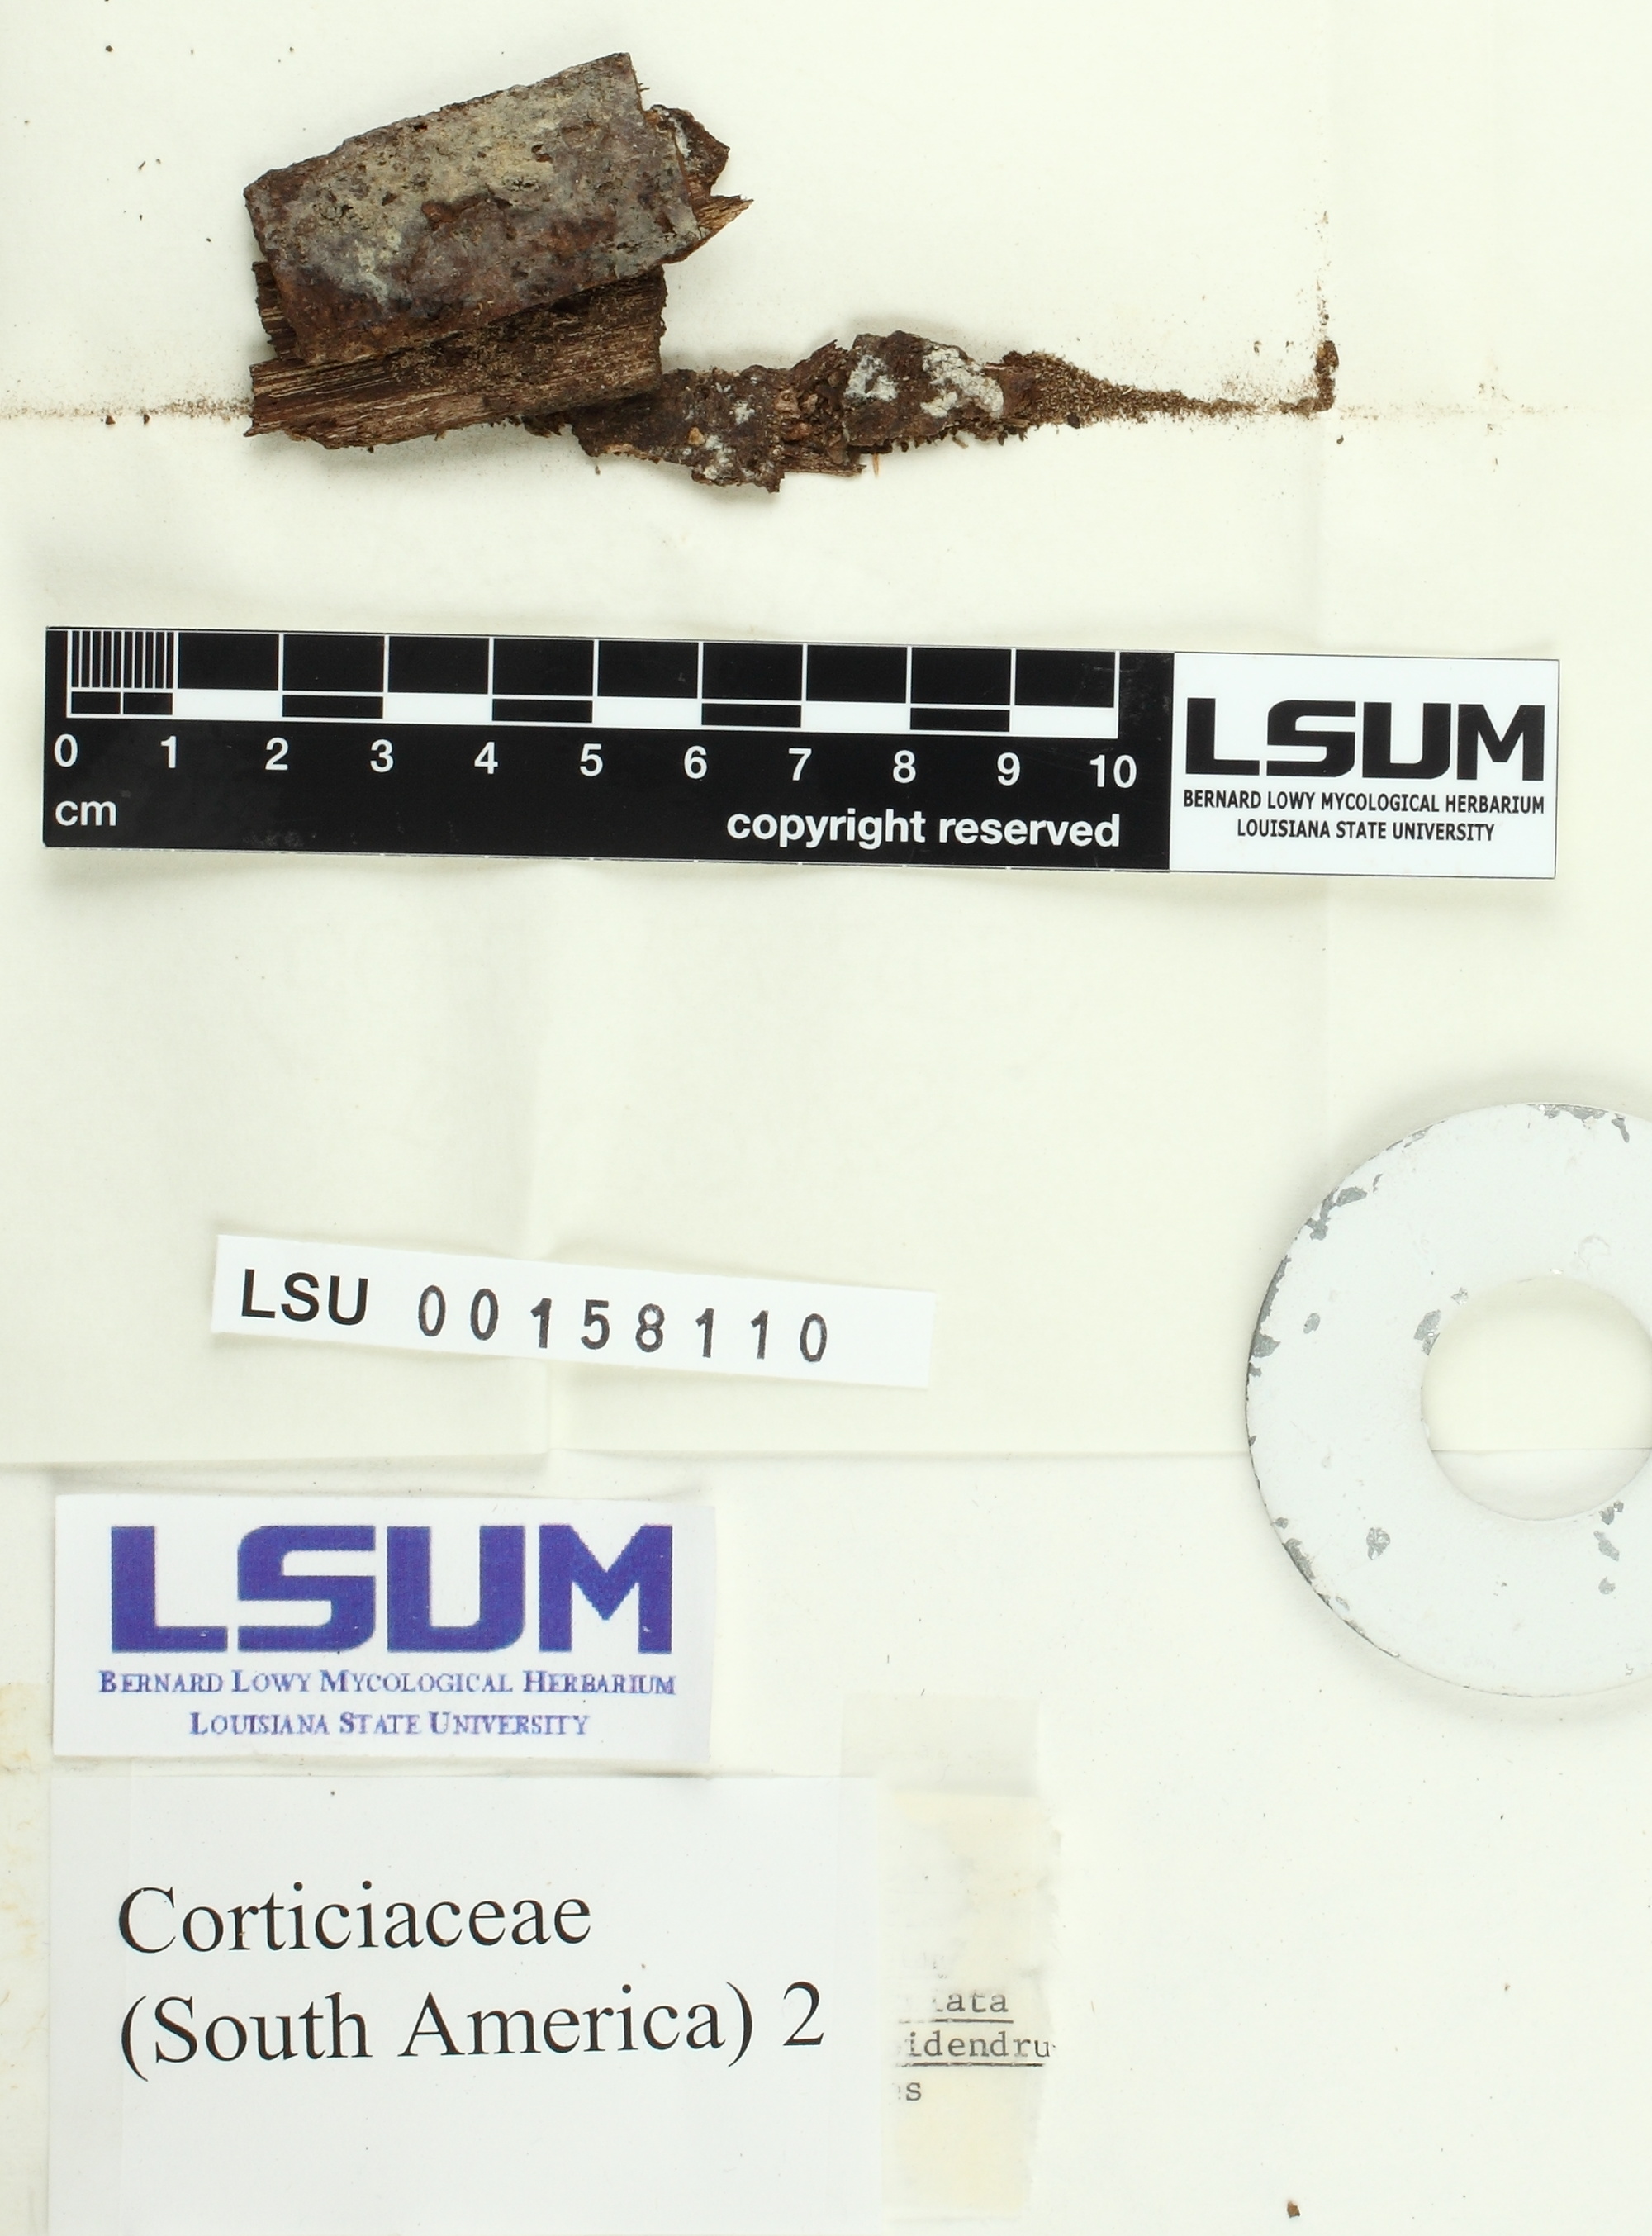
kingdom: Fungi
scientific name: Fungi
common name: Fungi
